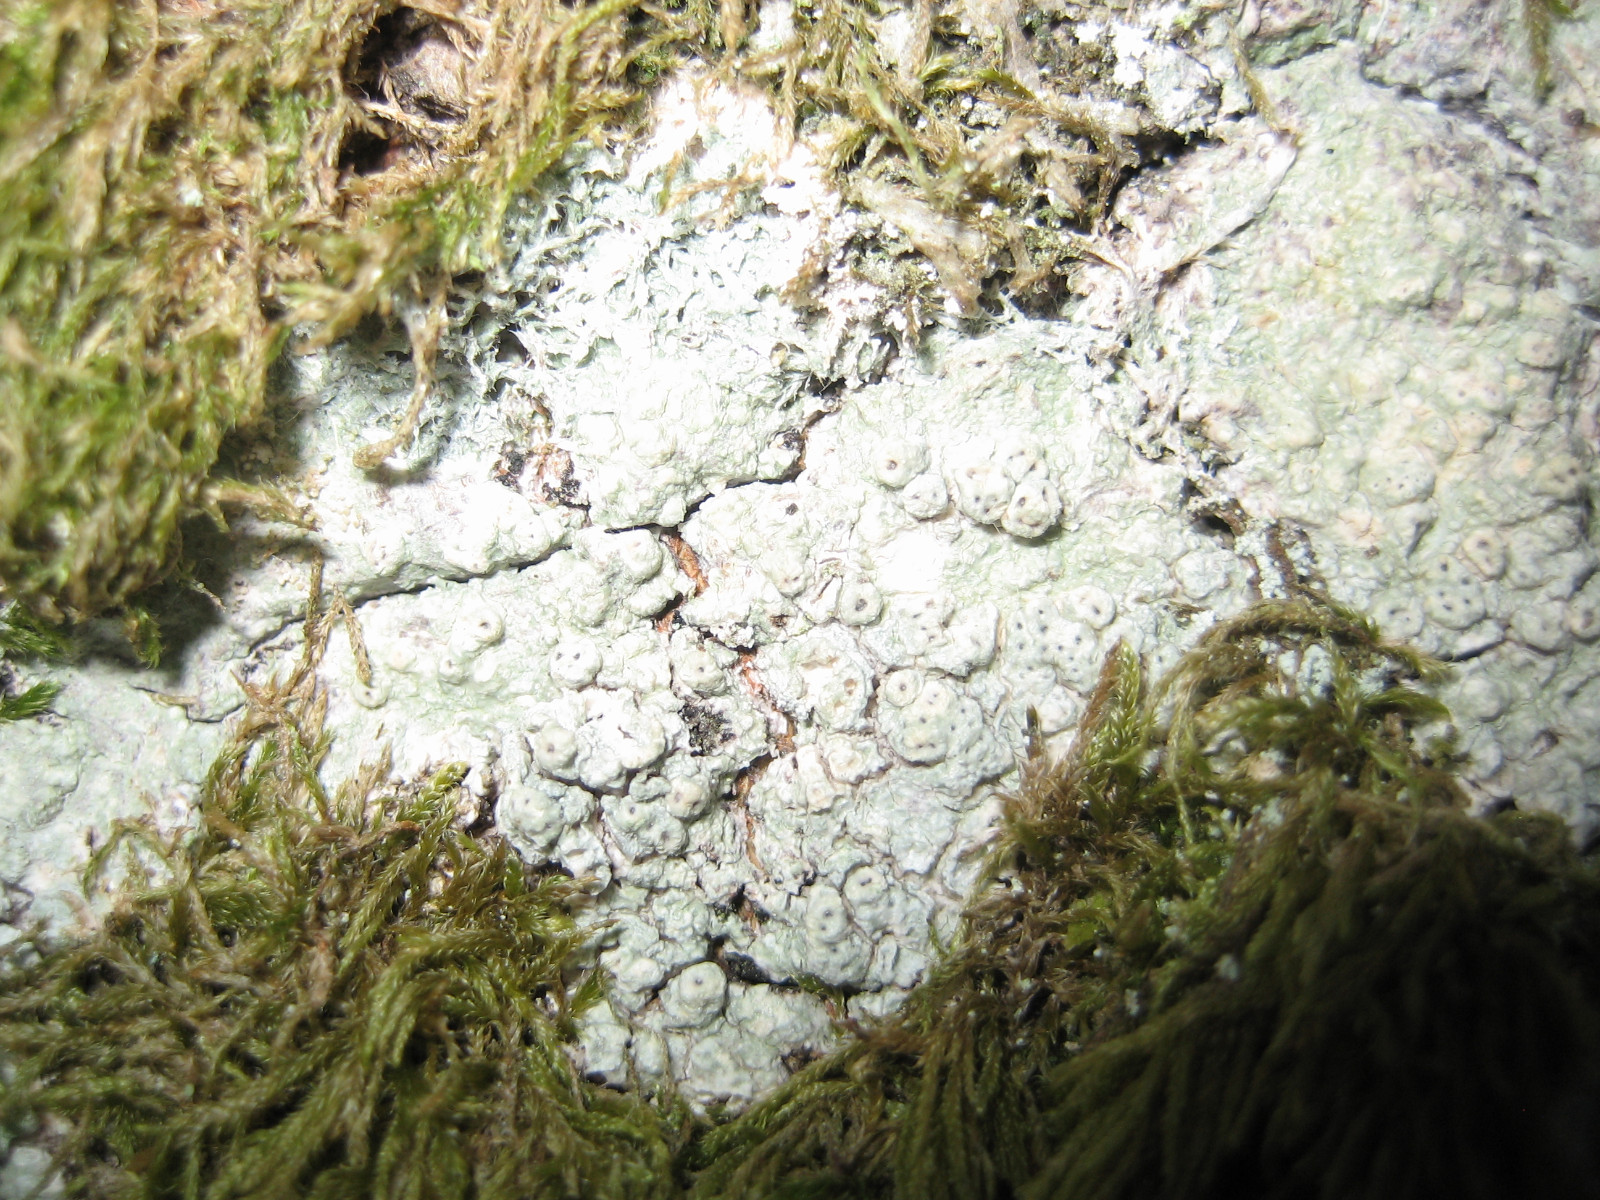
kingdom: Fungi
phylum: Ascomycota
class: Lecanoromycetes
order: Pertusariales
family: Pertusariaceae
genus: Pertusaria
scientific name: Pertusaria pertusa
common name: almindelig prikvortelav
